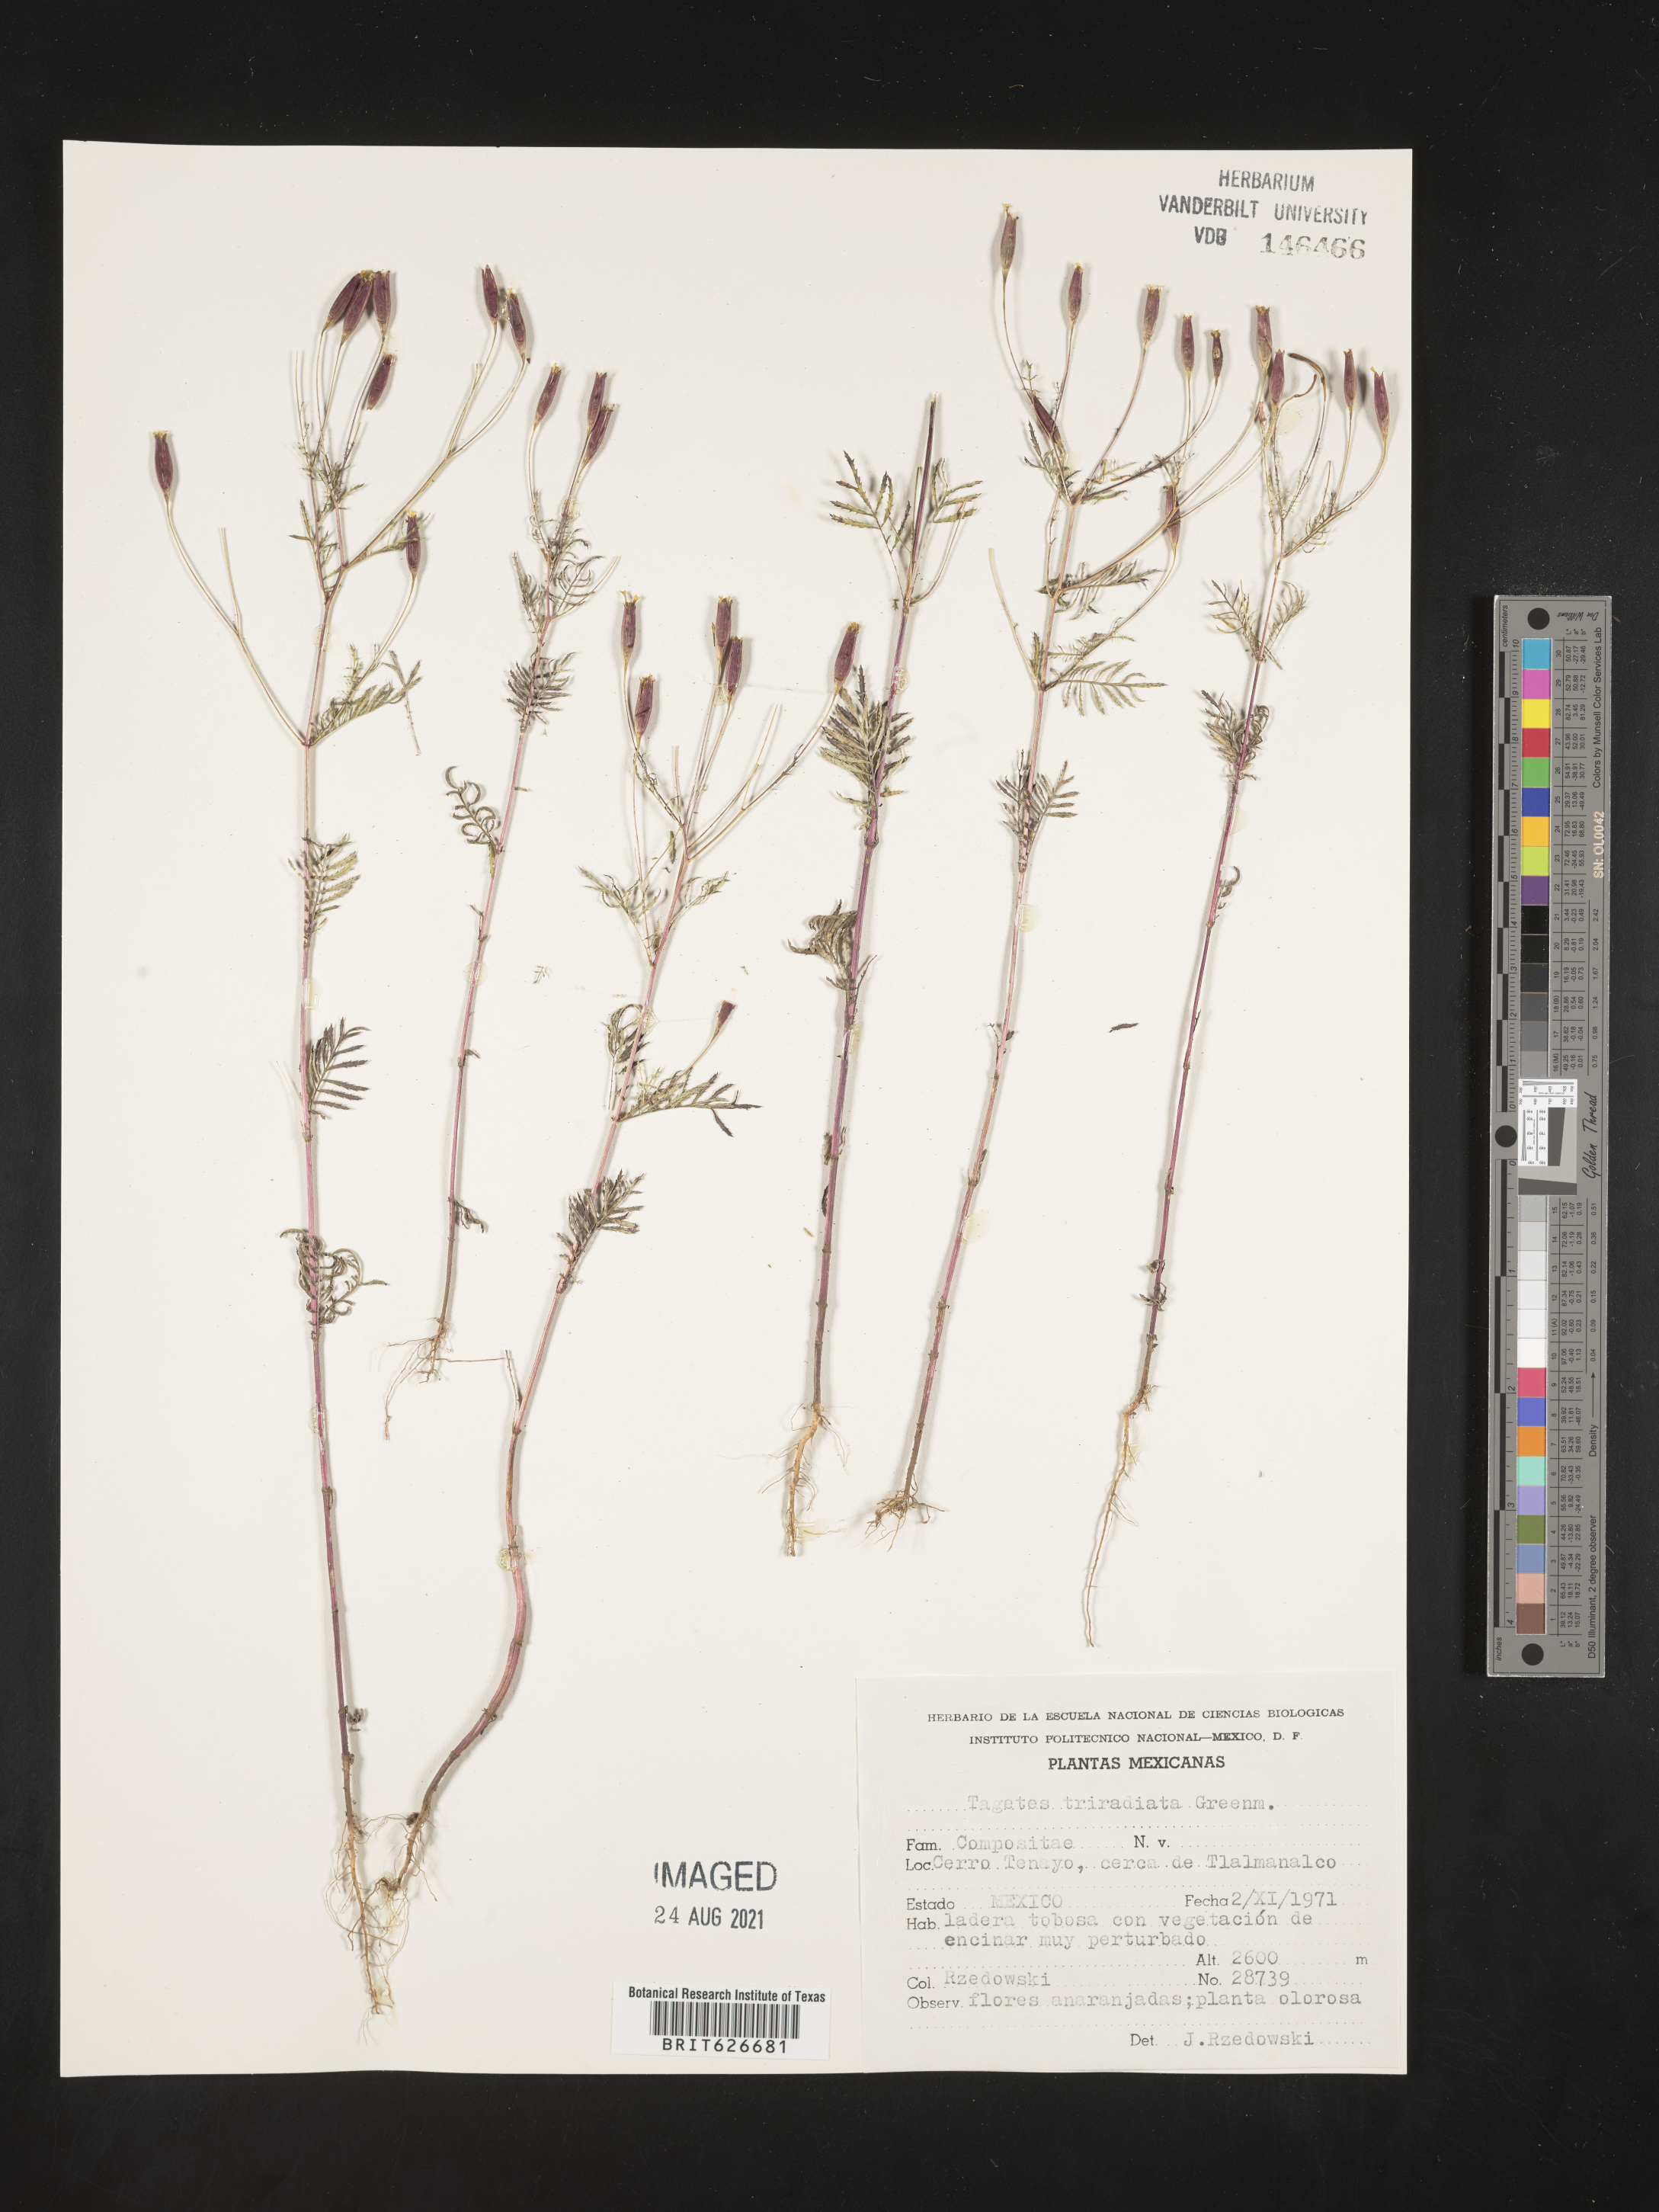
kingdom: Plantae
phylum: Tracheophyta
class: Magnoliopsida
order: Asterales
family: Asteraceae
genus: Tagetes
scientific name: Tagetes
